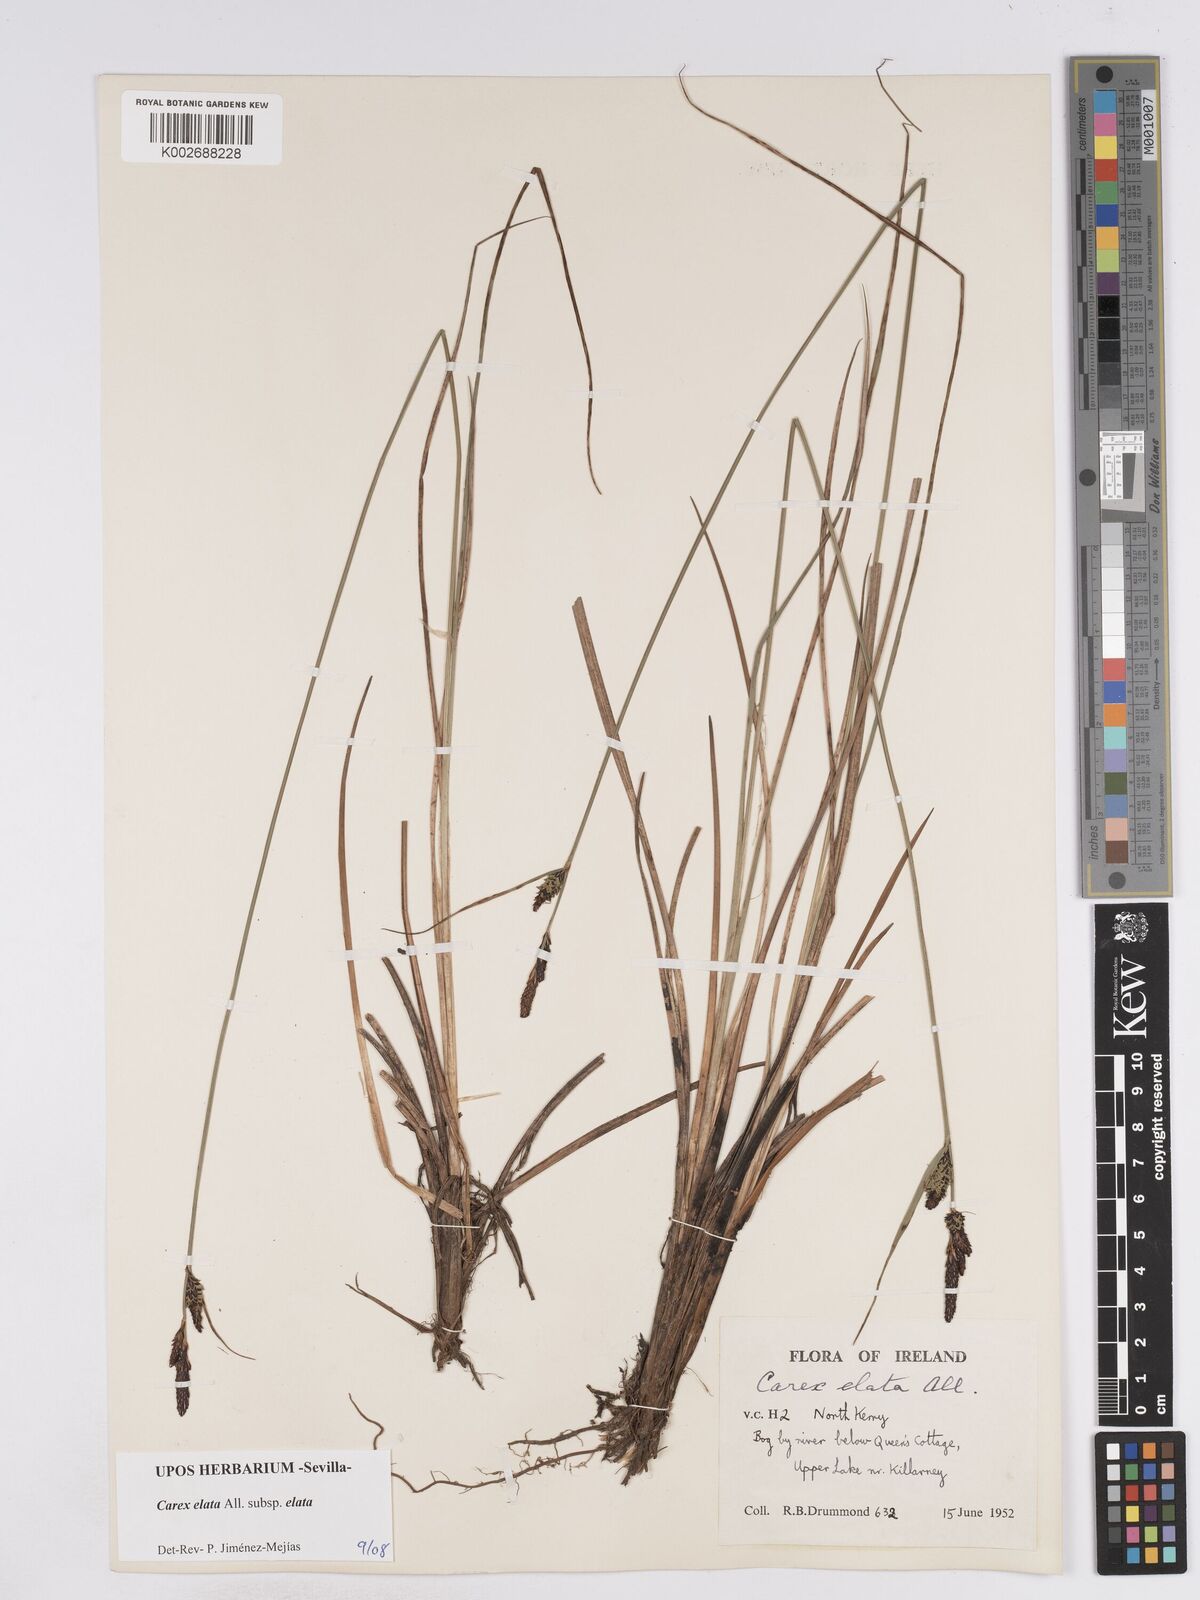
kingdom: Plantae
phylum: Tracheophyta
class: Liliopsida
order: Poales
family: Cyperaceae
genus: Carex
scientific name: Carex elata
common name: Tufted sedge
